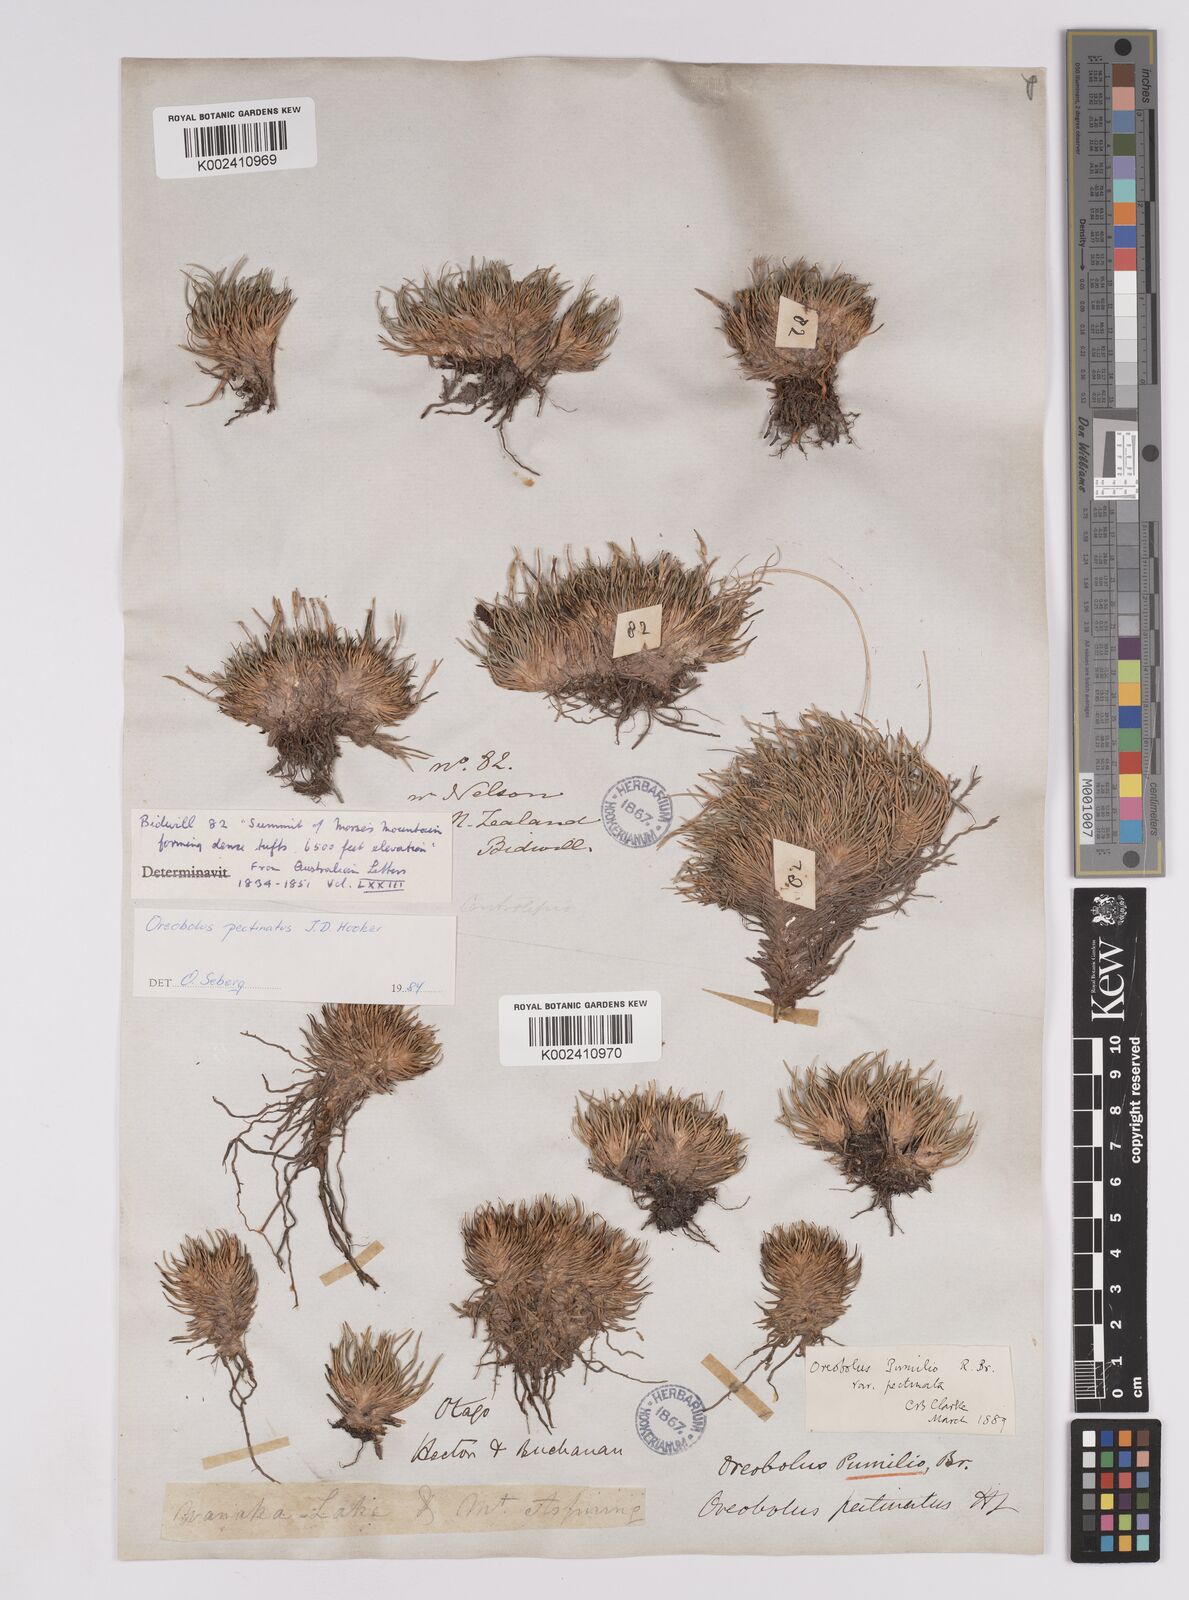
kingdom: Plantae
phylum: Tracheophyta
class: Liliopsida
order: Poales
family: Cyperaceae
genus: Oreobolus
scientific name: Oreobolus pectinatus
